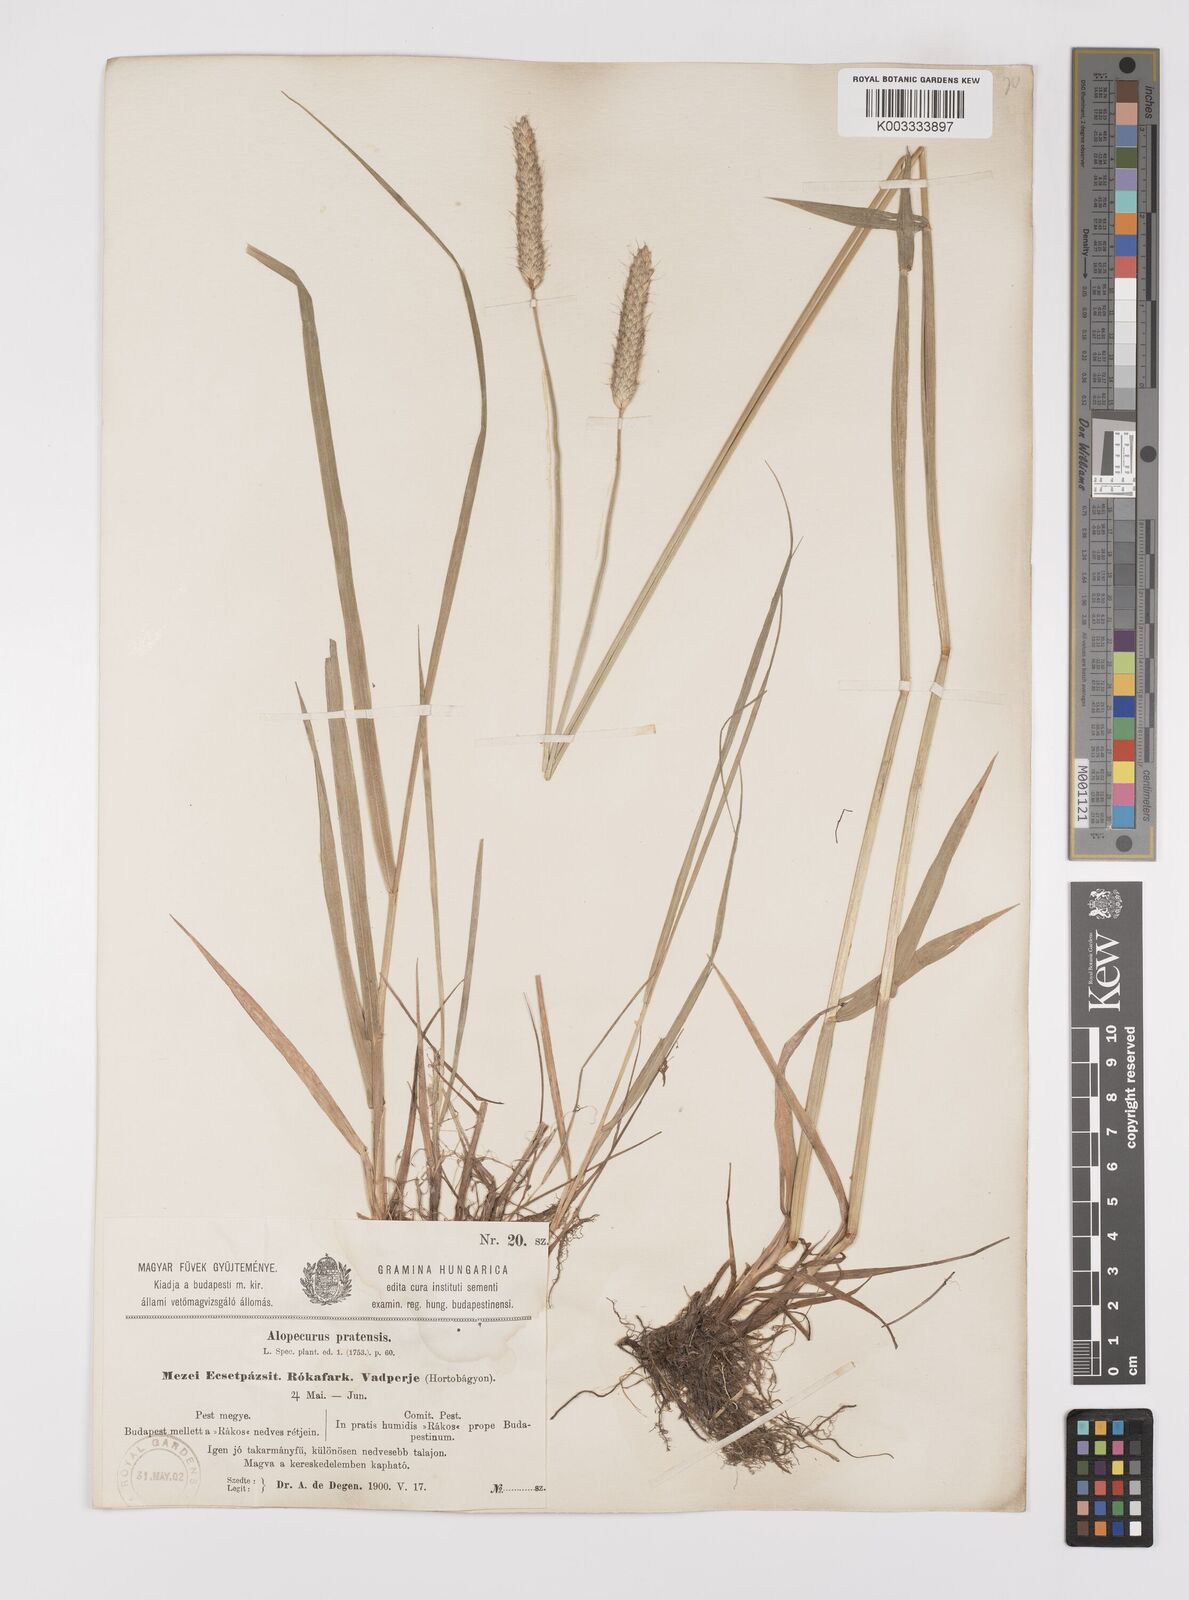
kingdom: Plantae
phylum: Tracheophyta
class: Liliopsida
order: Poales
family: Poaceae
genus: Alopecurus
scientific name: Alopecurus pratensis
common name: Meadow foxtail
